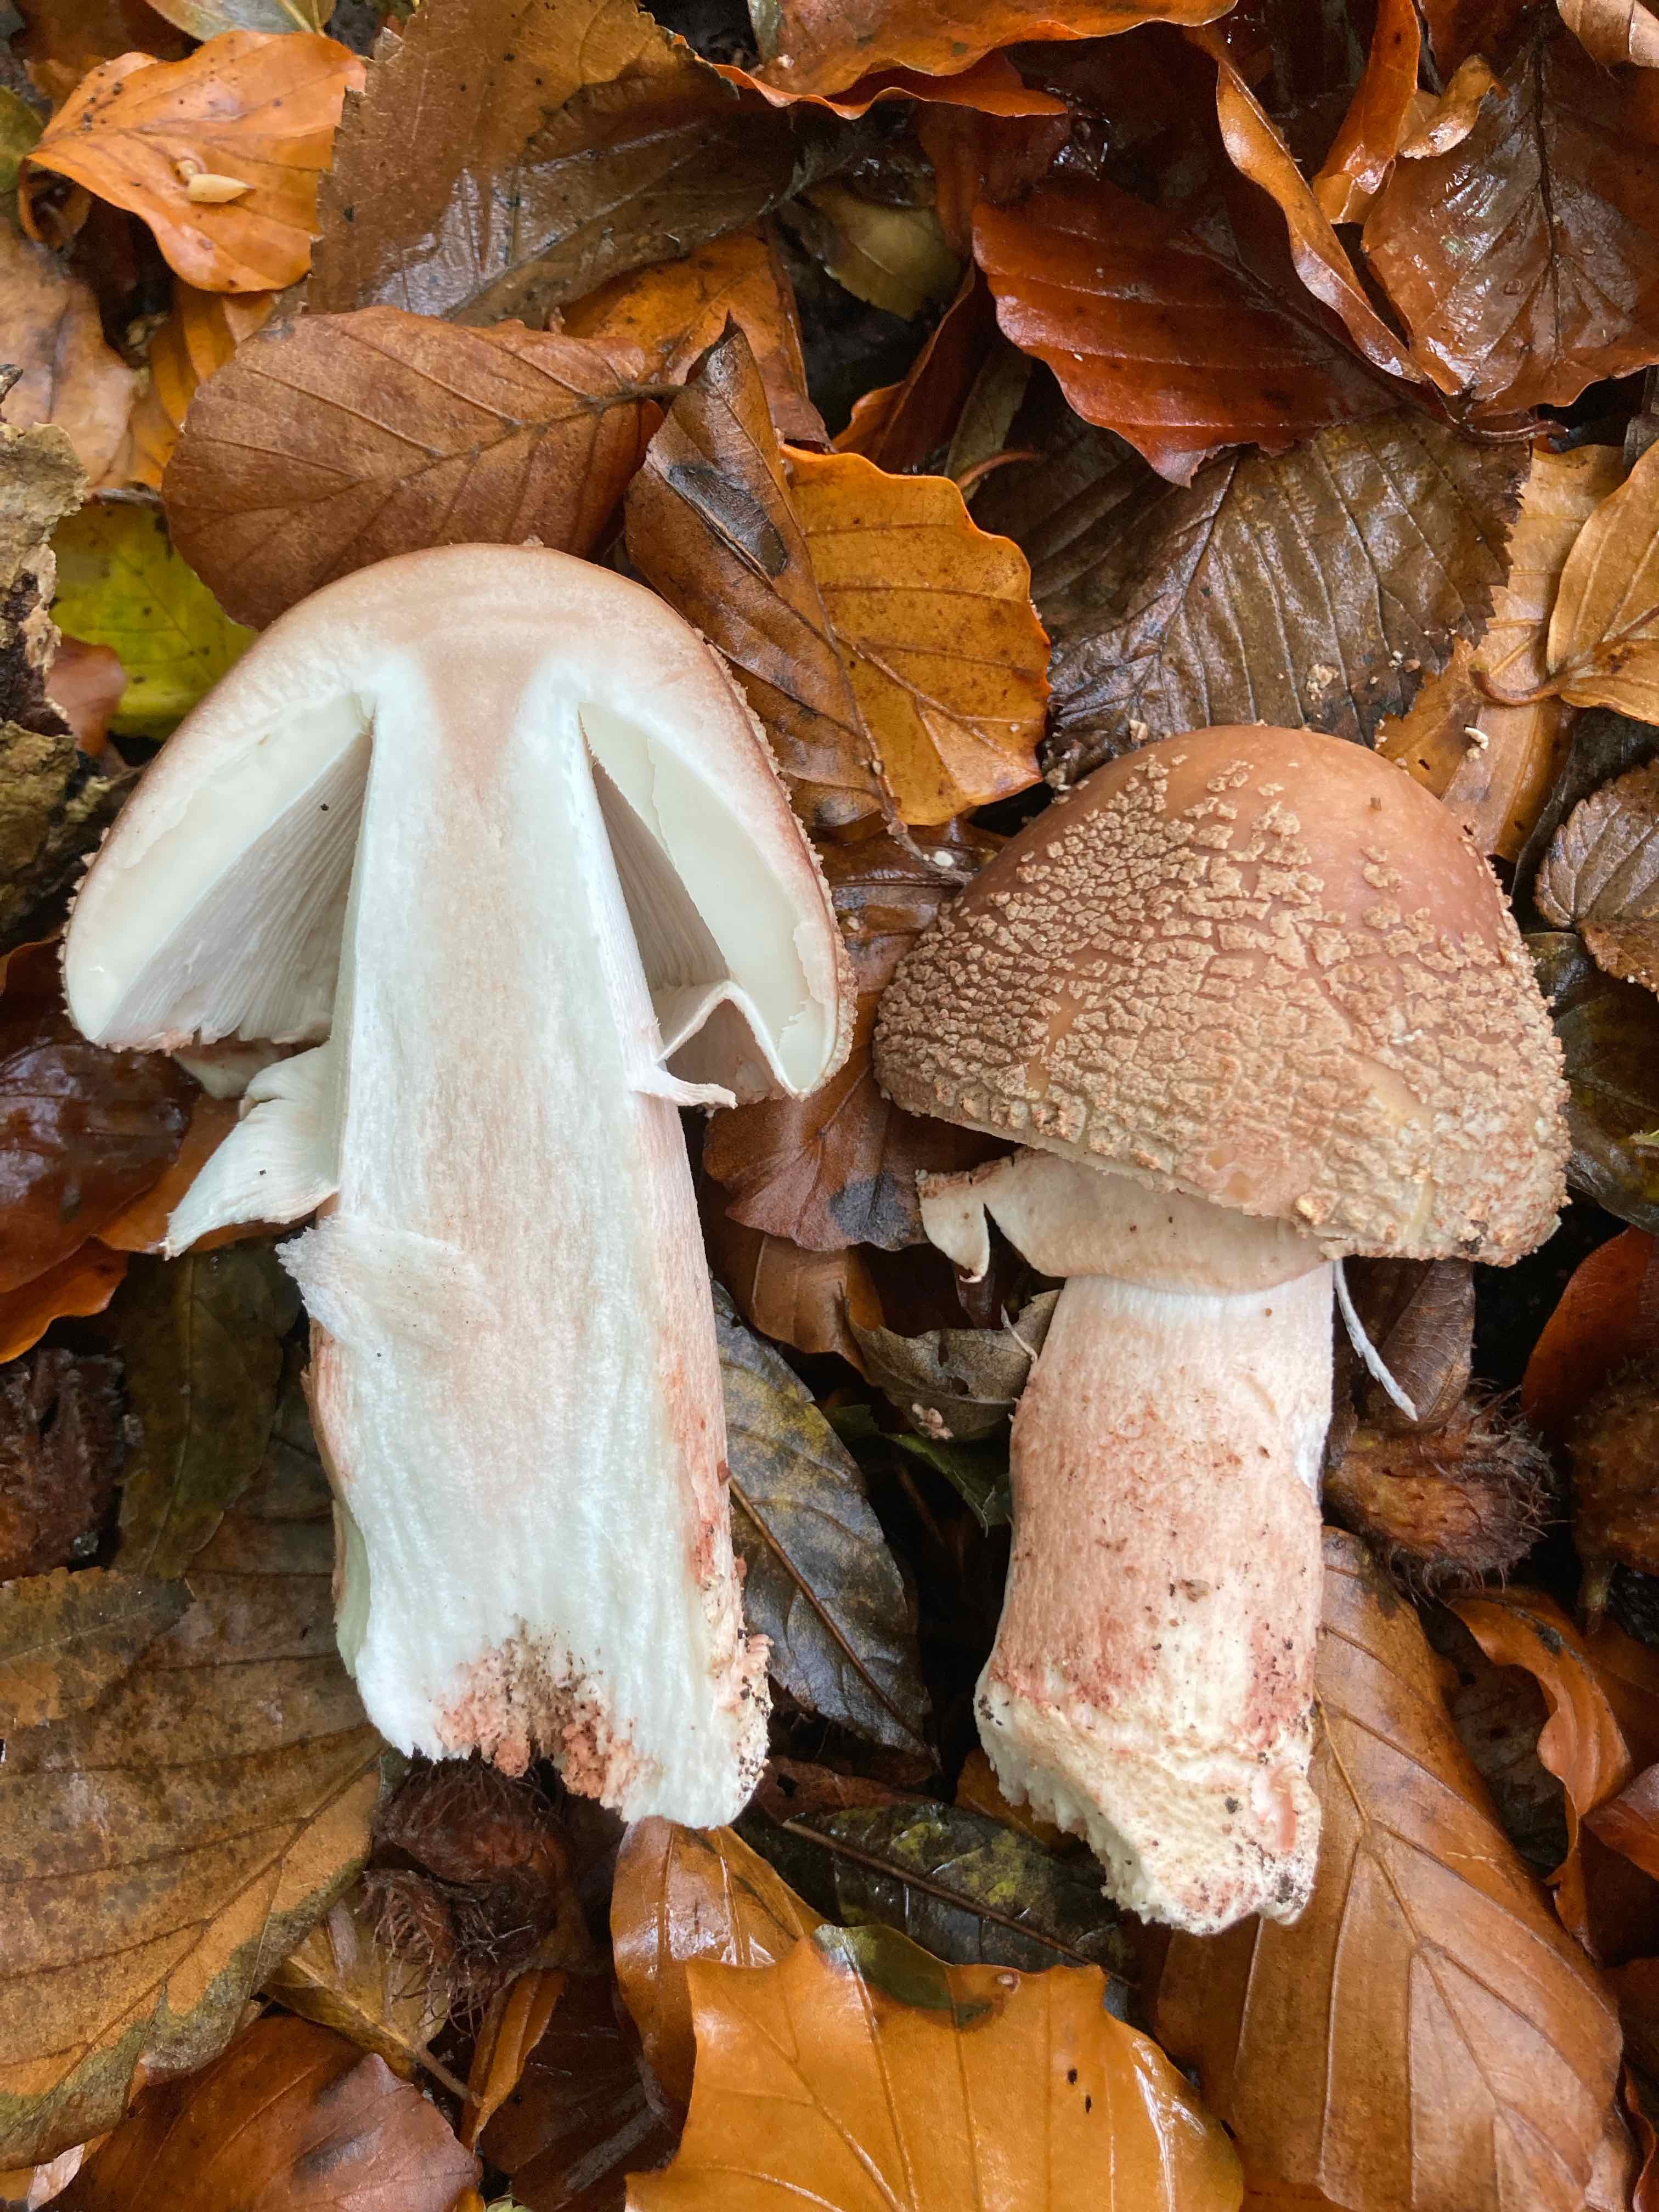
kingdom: Fungi
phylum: Basidiomycota
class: Agaricomycetes
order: Agaricales
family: Amanitaceae
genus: Amanita
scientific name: Amanita rubescens
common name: rødmende fluesvamp
